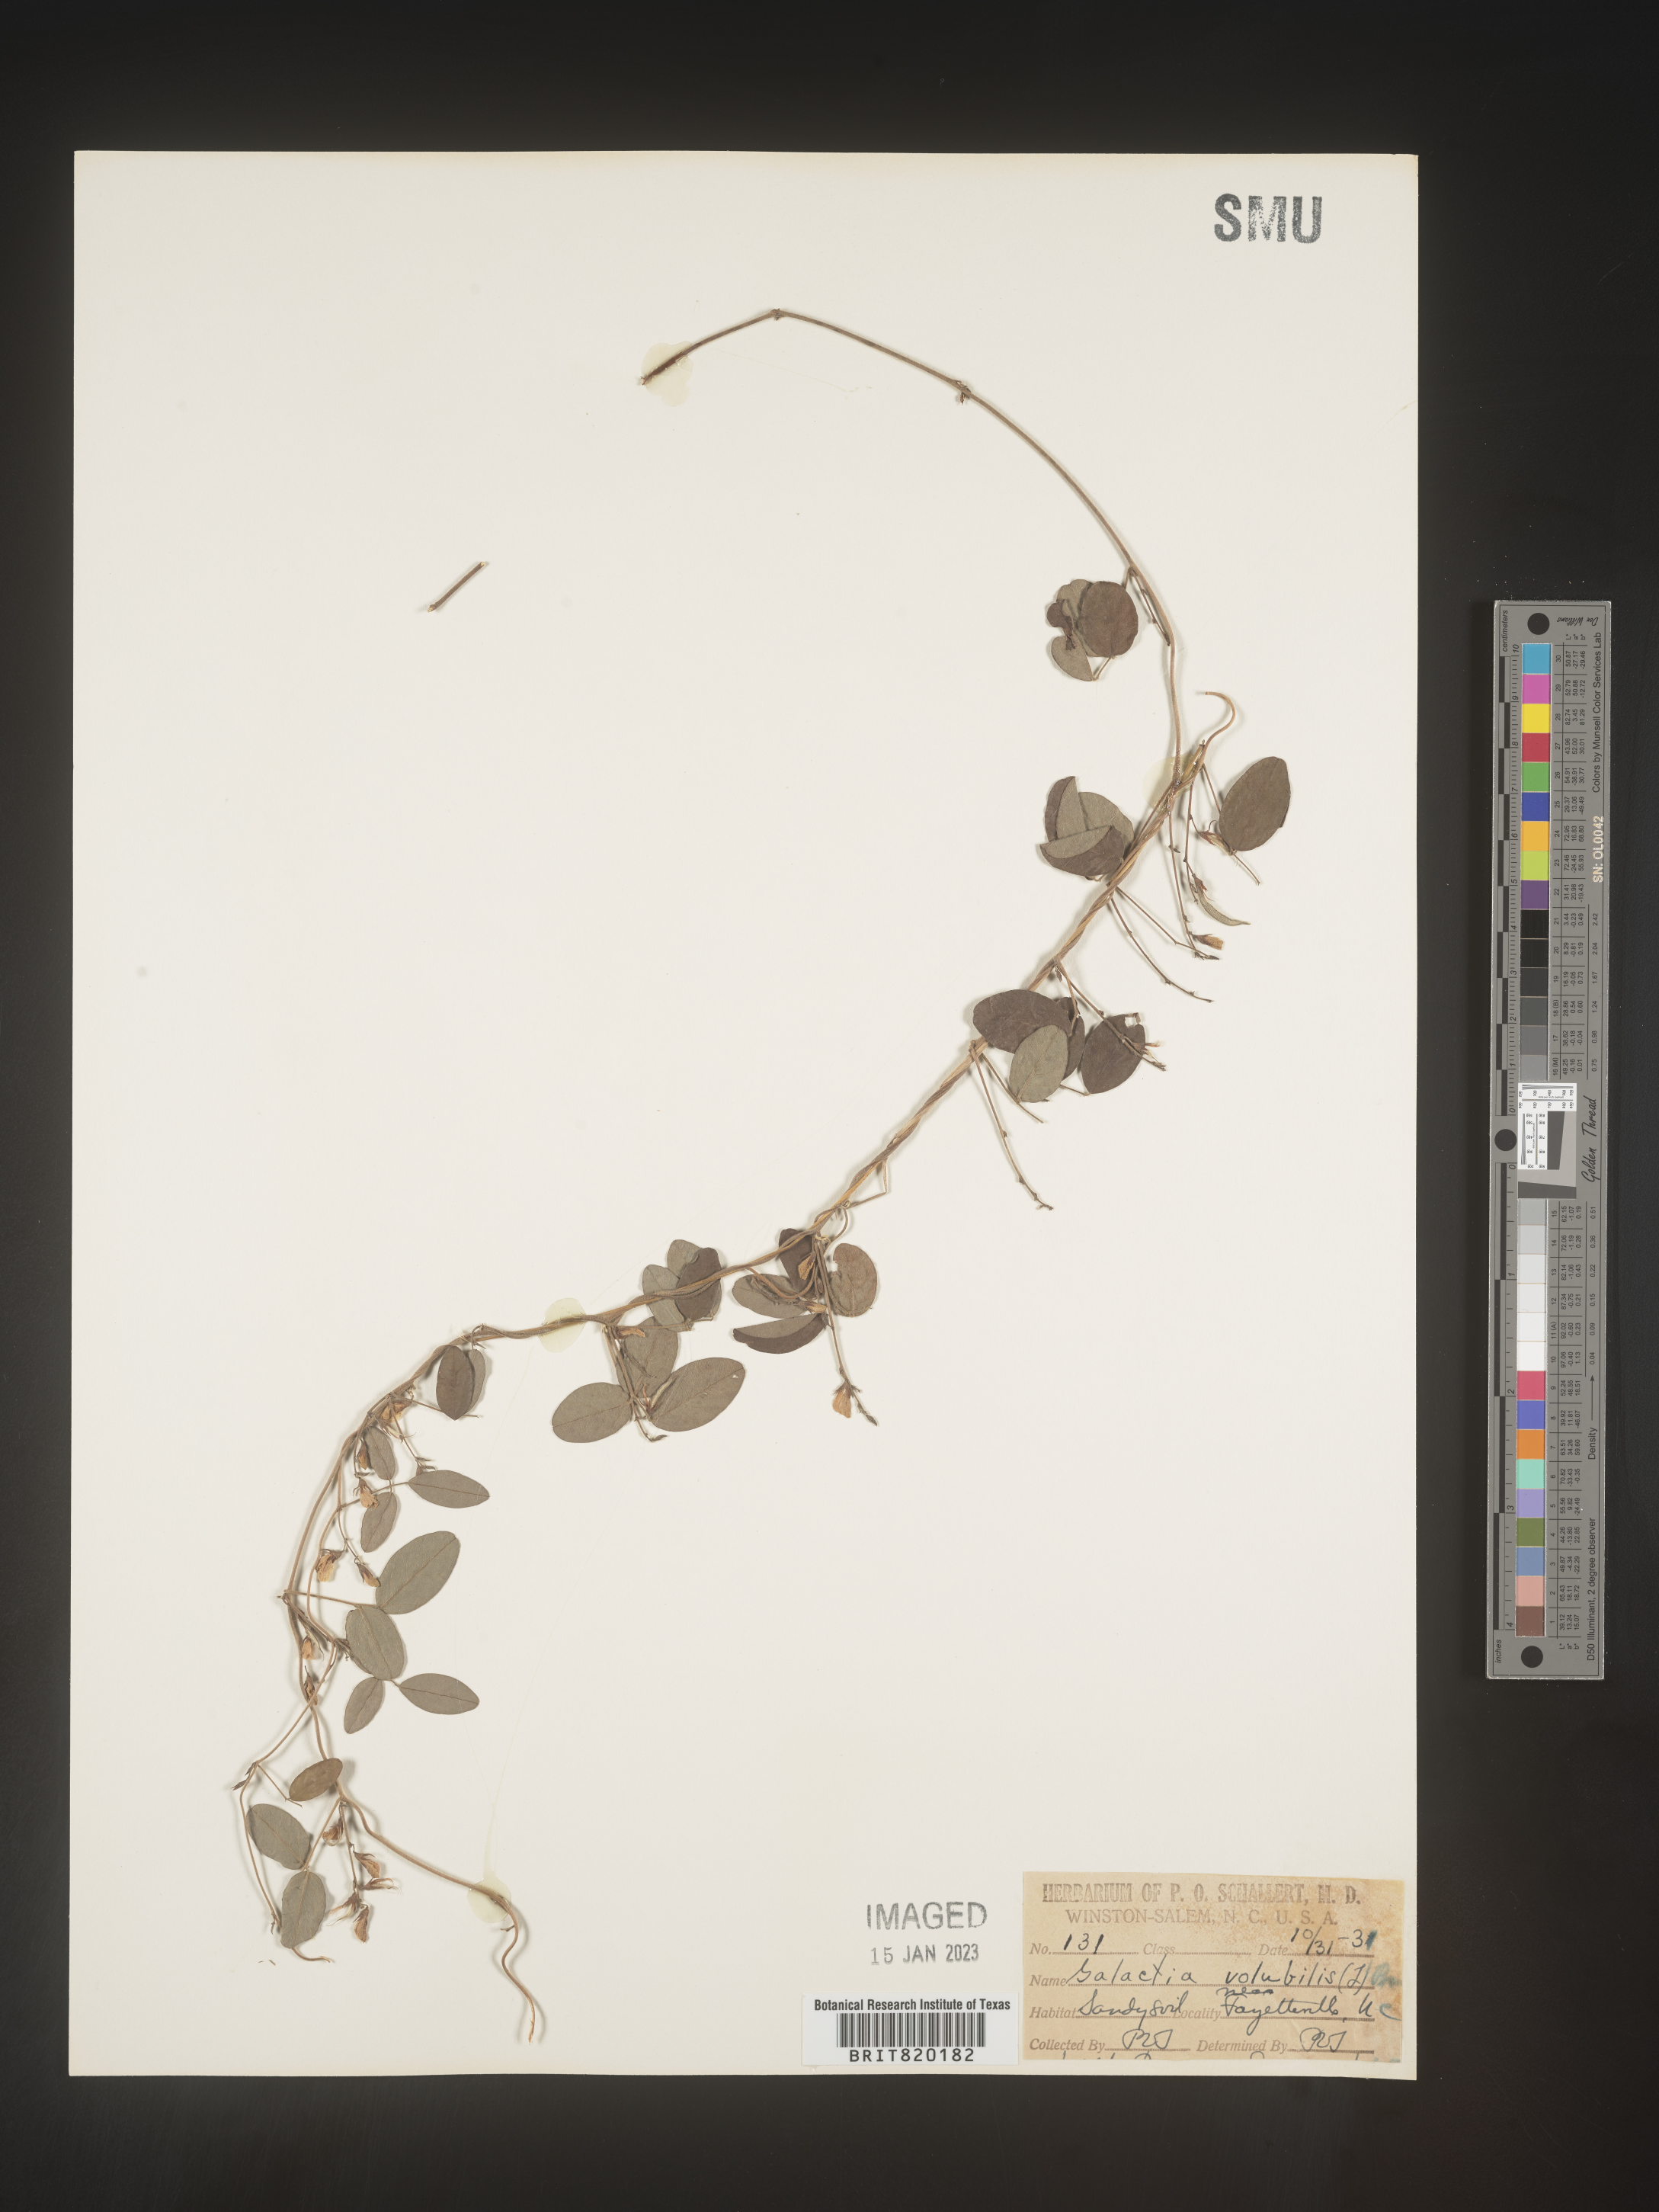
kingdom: Plantae
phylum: Tracheophyta
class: Magnoliopsida
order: Fabales
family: Fabaceae
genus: Galactia
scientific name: Galactia volubilis
